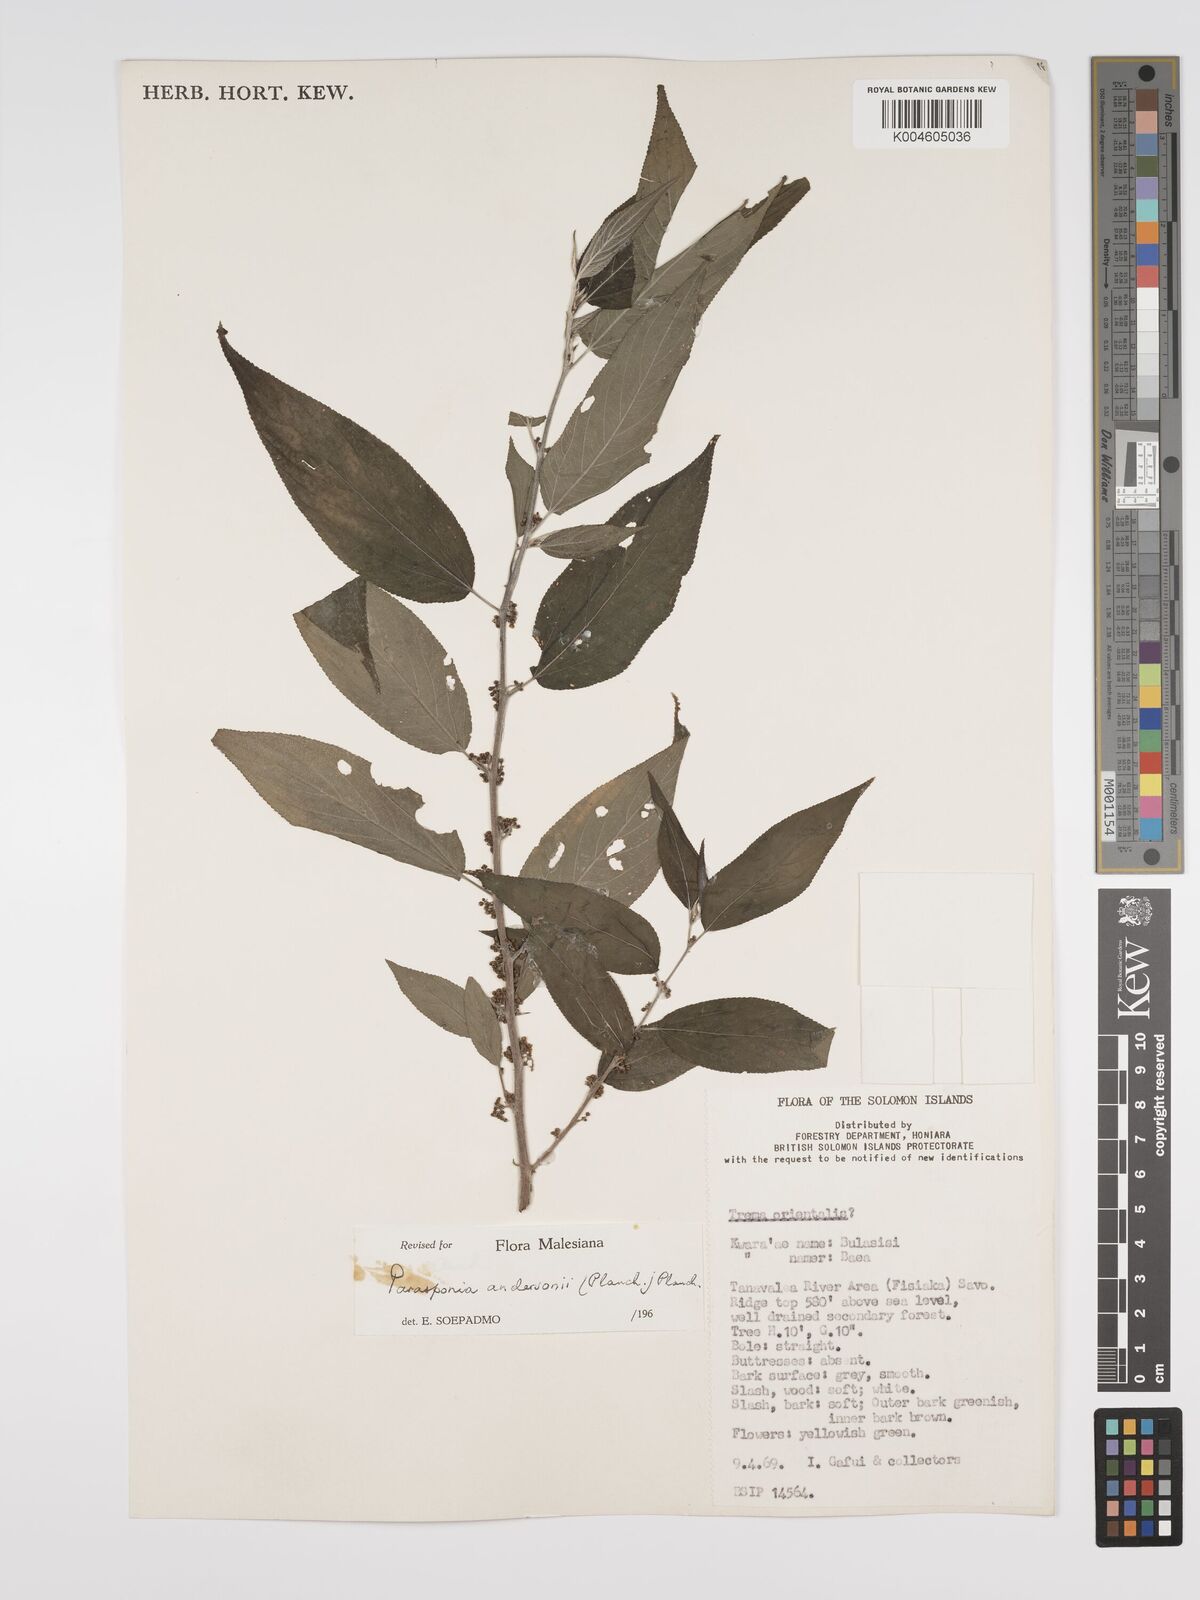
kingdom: Plantae
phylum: Tracheophyta
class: Magnoliopsida
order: Rosales
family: Cannabaceae
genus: Trema
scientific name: Trema andersonii
